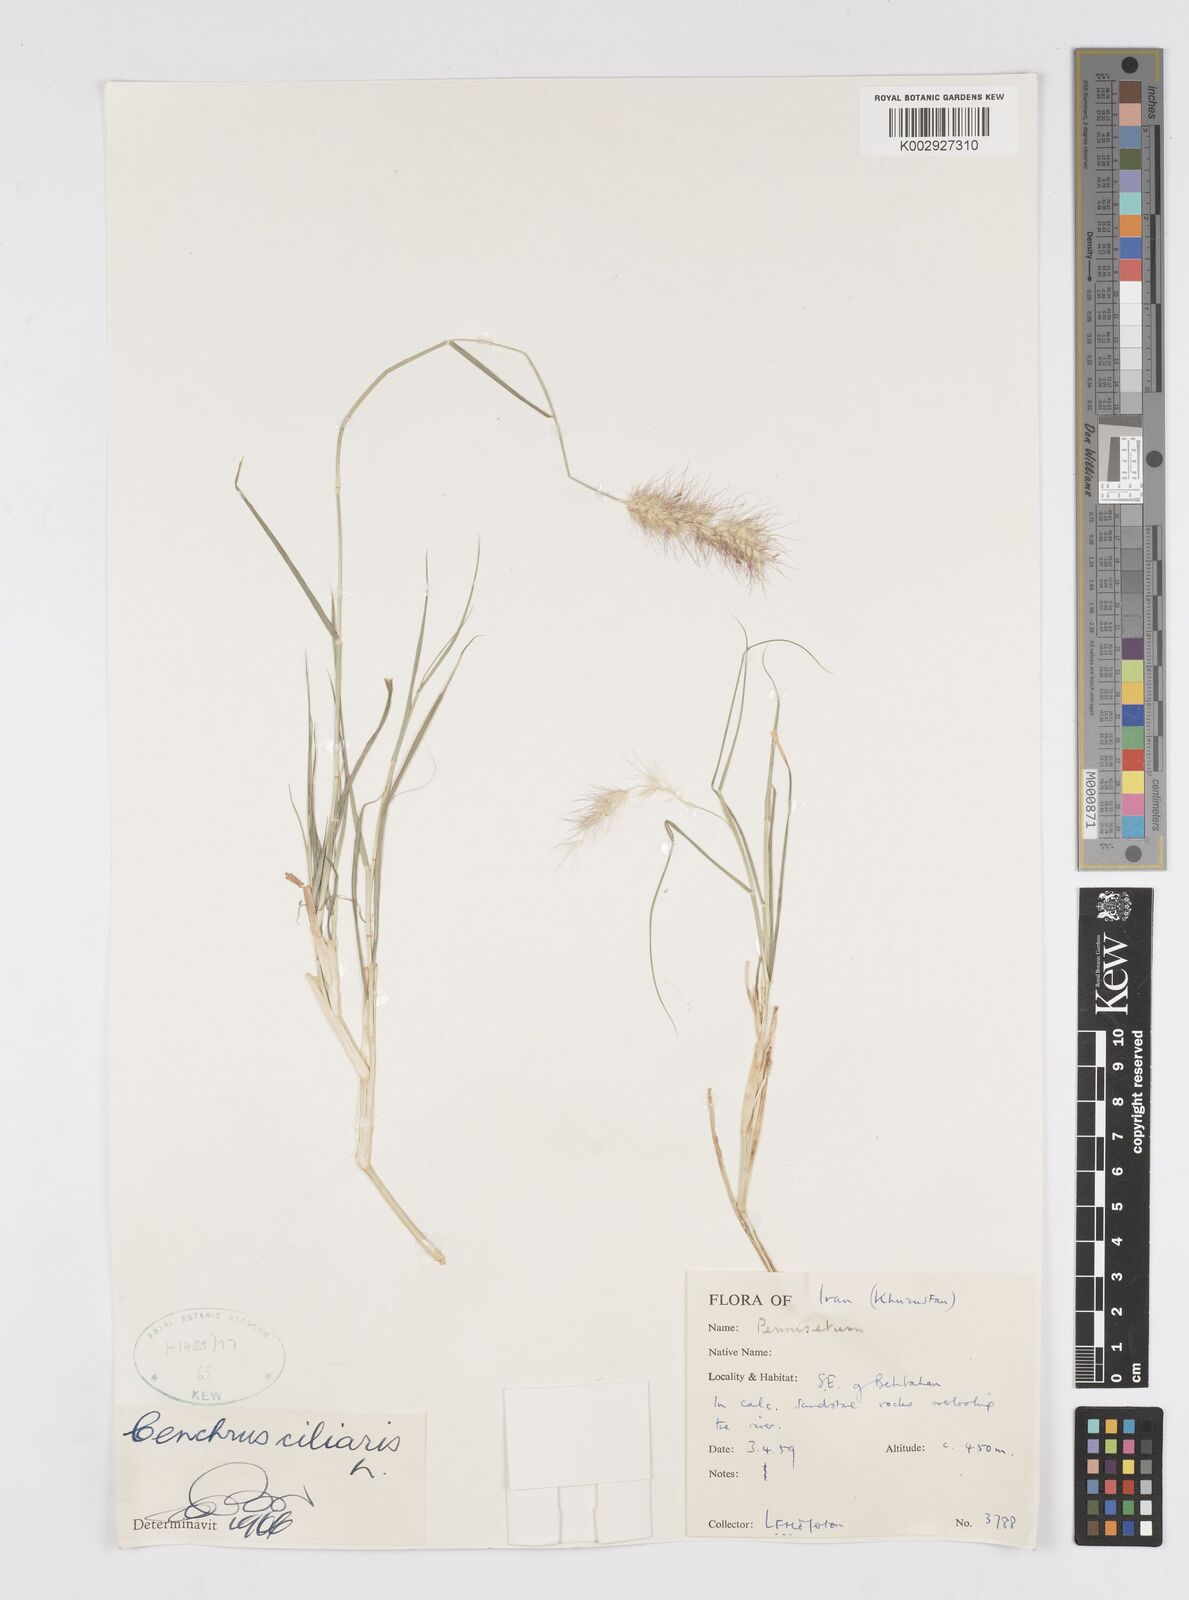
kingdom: Plantae
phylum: Tracheophyta
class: Liliopsida
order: Poales
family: Poaceae
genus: Cenchrus
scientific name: Cenchrus ciliaris
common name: Buffelgrass
